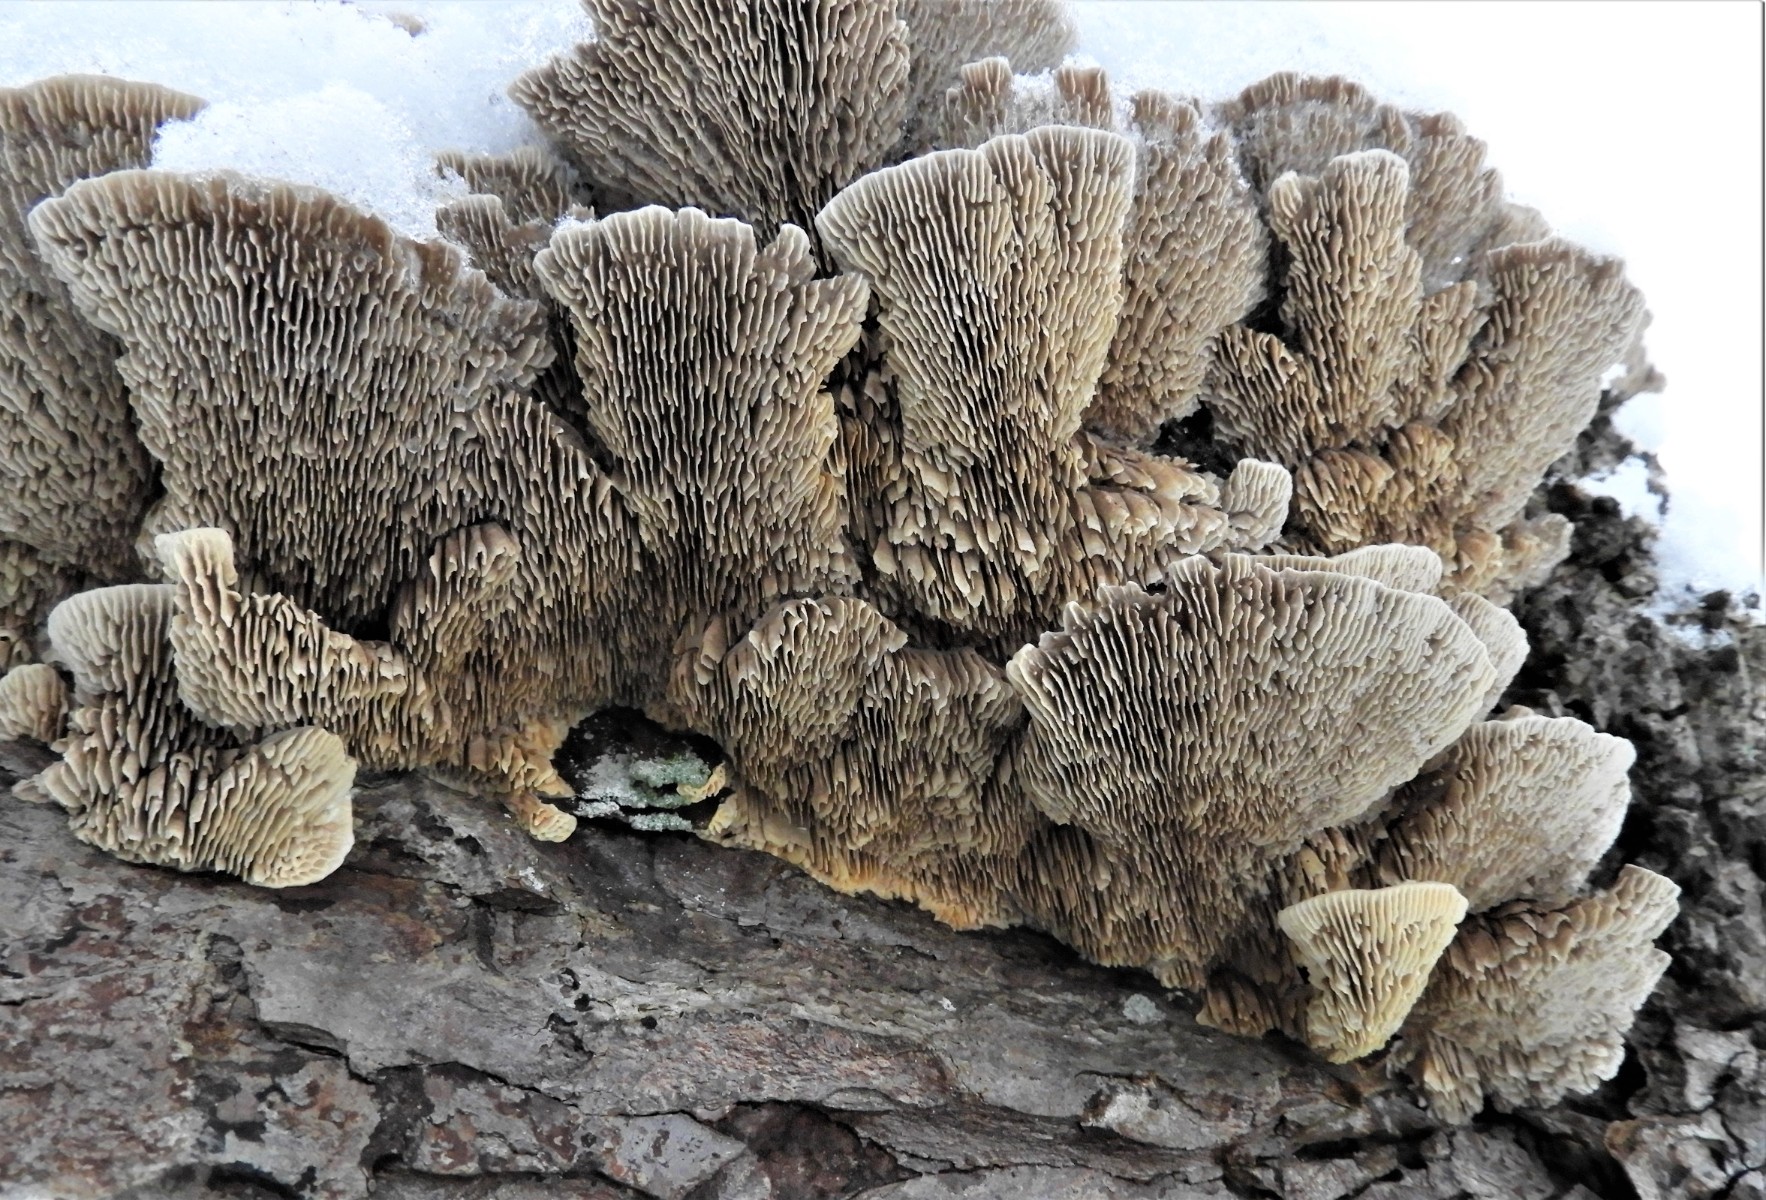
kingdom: Fungi
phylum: Basidiomycota
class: Agaricomycetes
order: Polyporales
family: Polyporaceae
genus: Lenzites
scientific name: Lenzites betulinus
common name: birke-læderporesvamp
